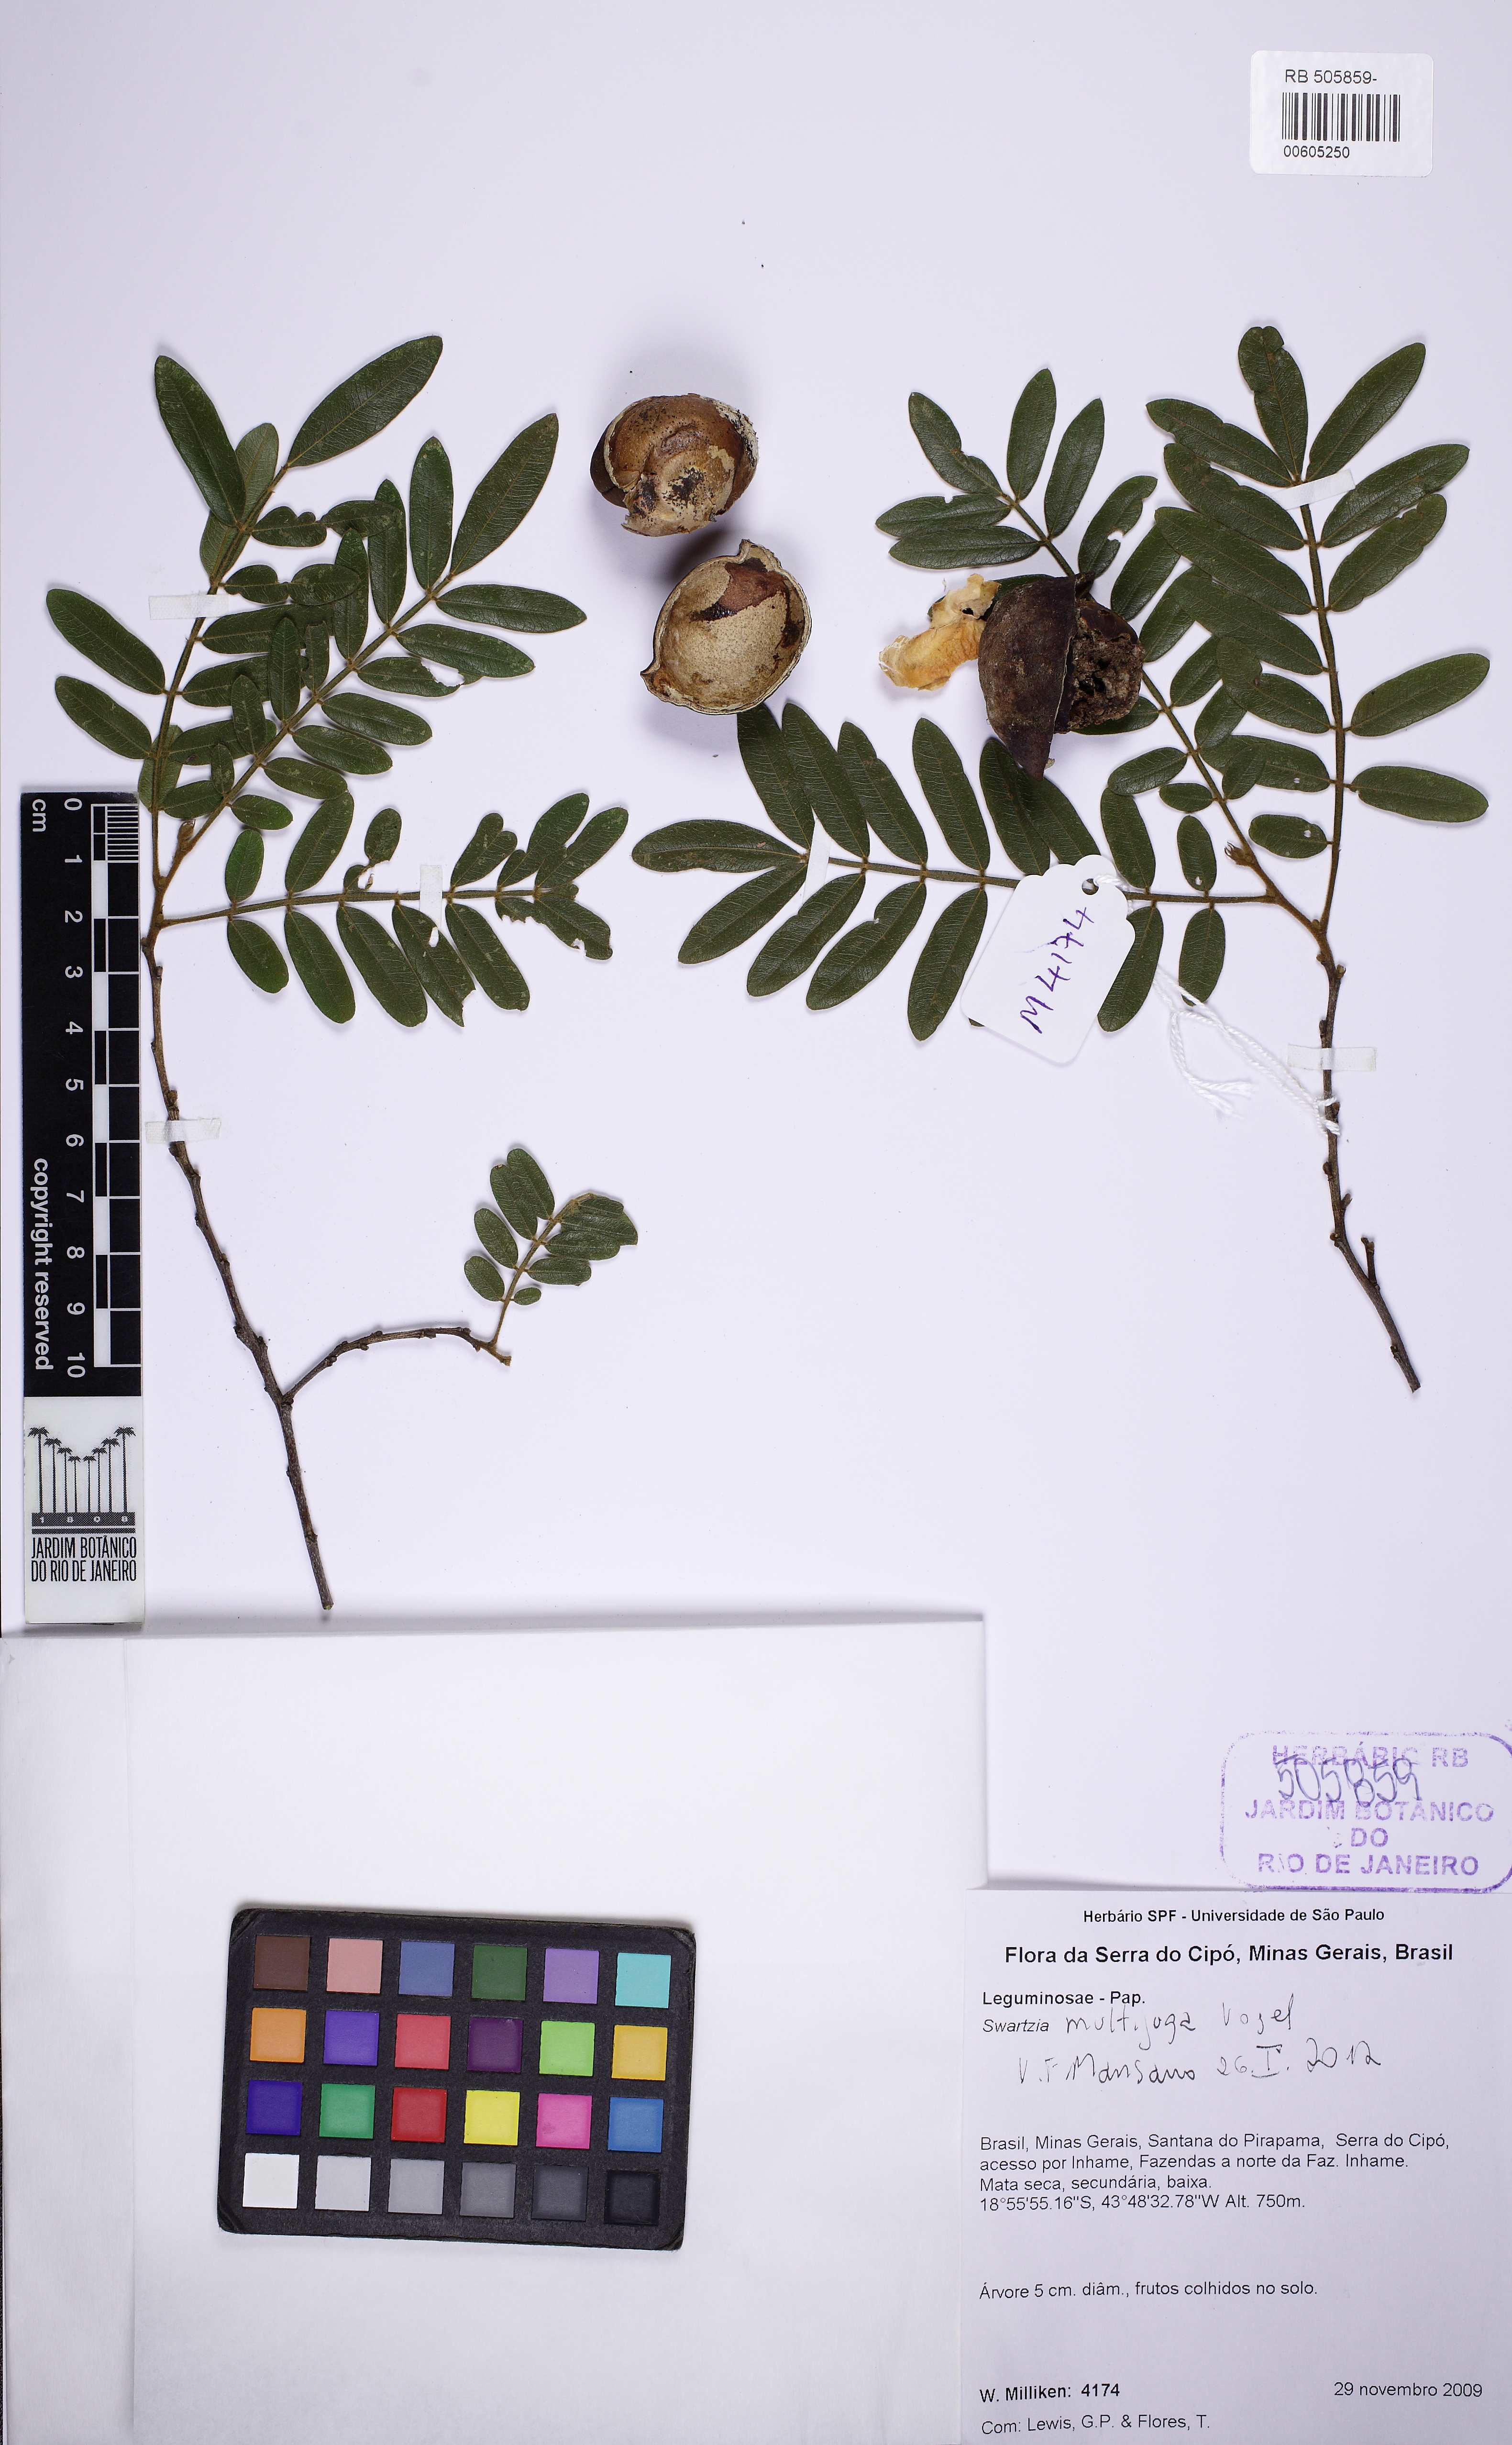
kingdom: Plantae
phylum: Tracheophyta
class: Magnoliopsida
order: Fabales
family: Fabaceae
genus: Swartzia
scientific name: Swartzia multijuga
